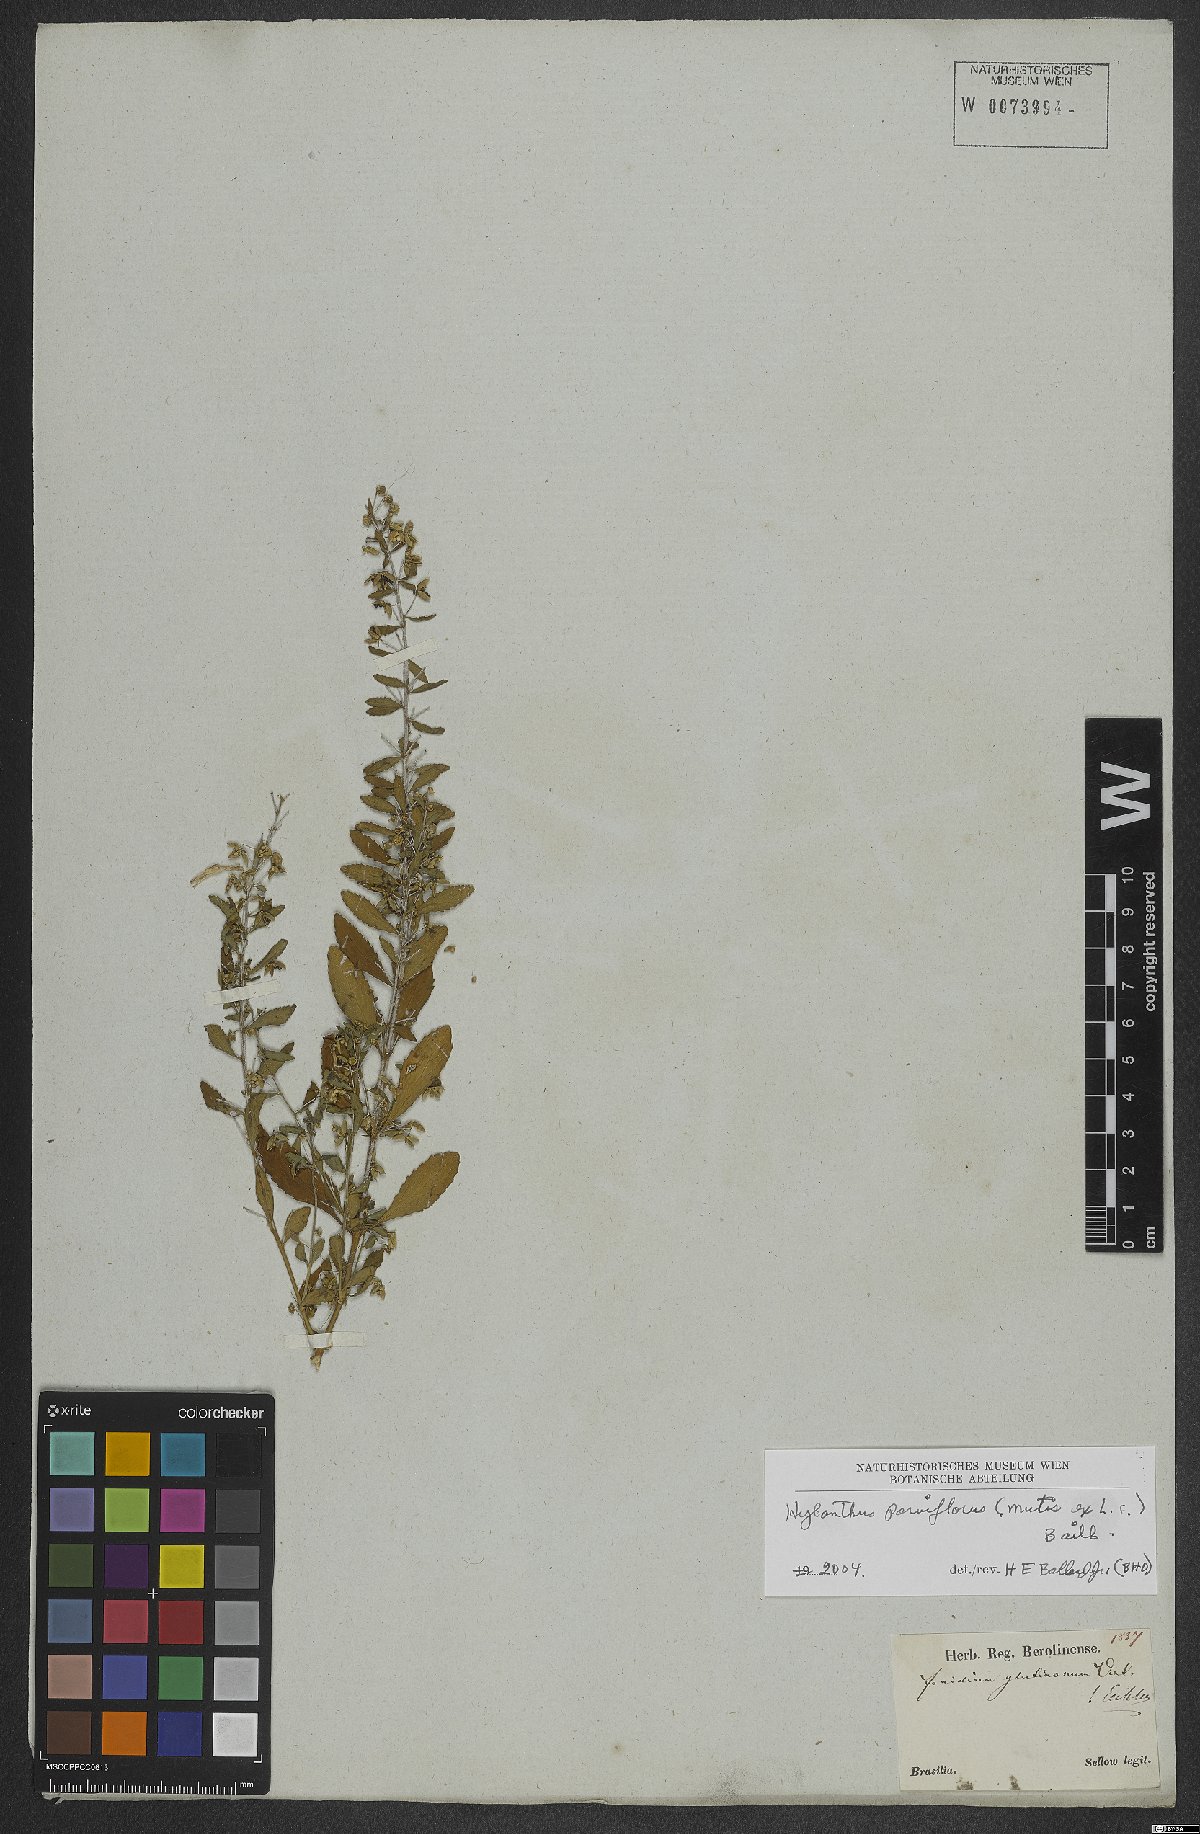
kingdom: Plantae
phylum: Tracheophyta
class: Magnoliopsida
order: Malpighiales
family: Violaceae
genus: Pombalia
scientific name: Pombalia parviflora
